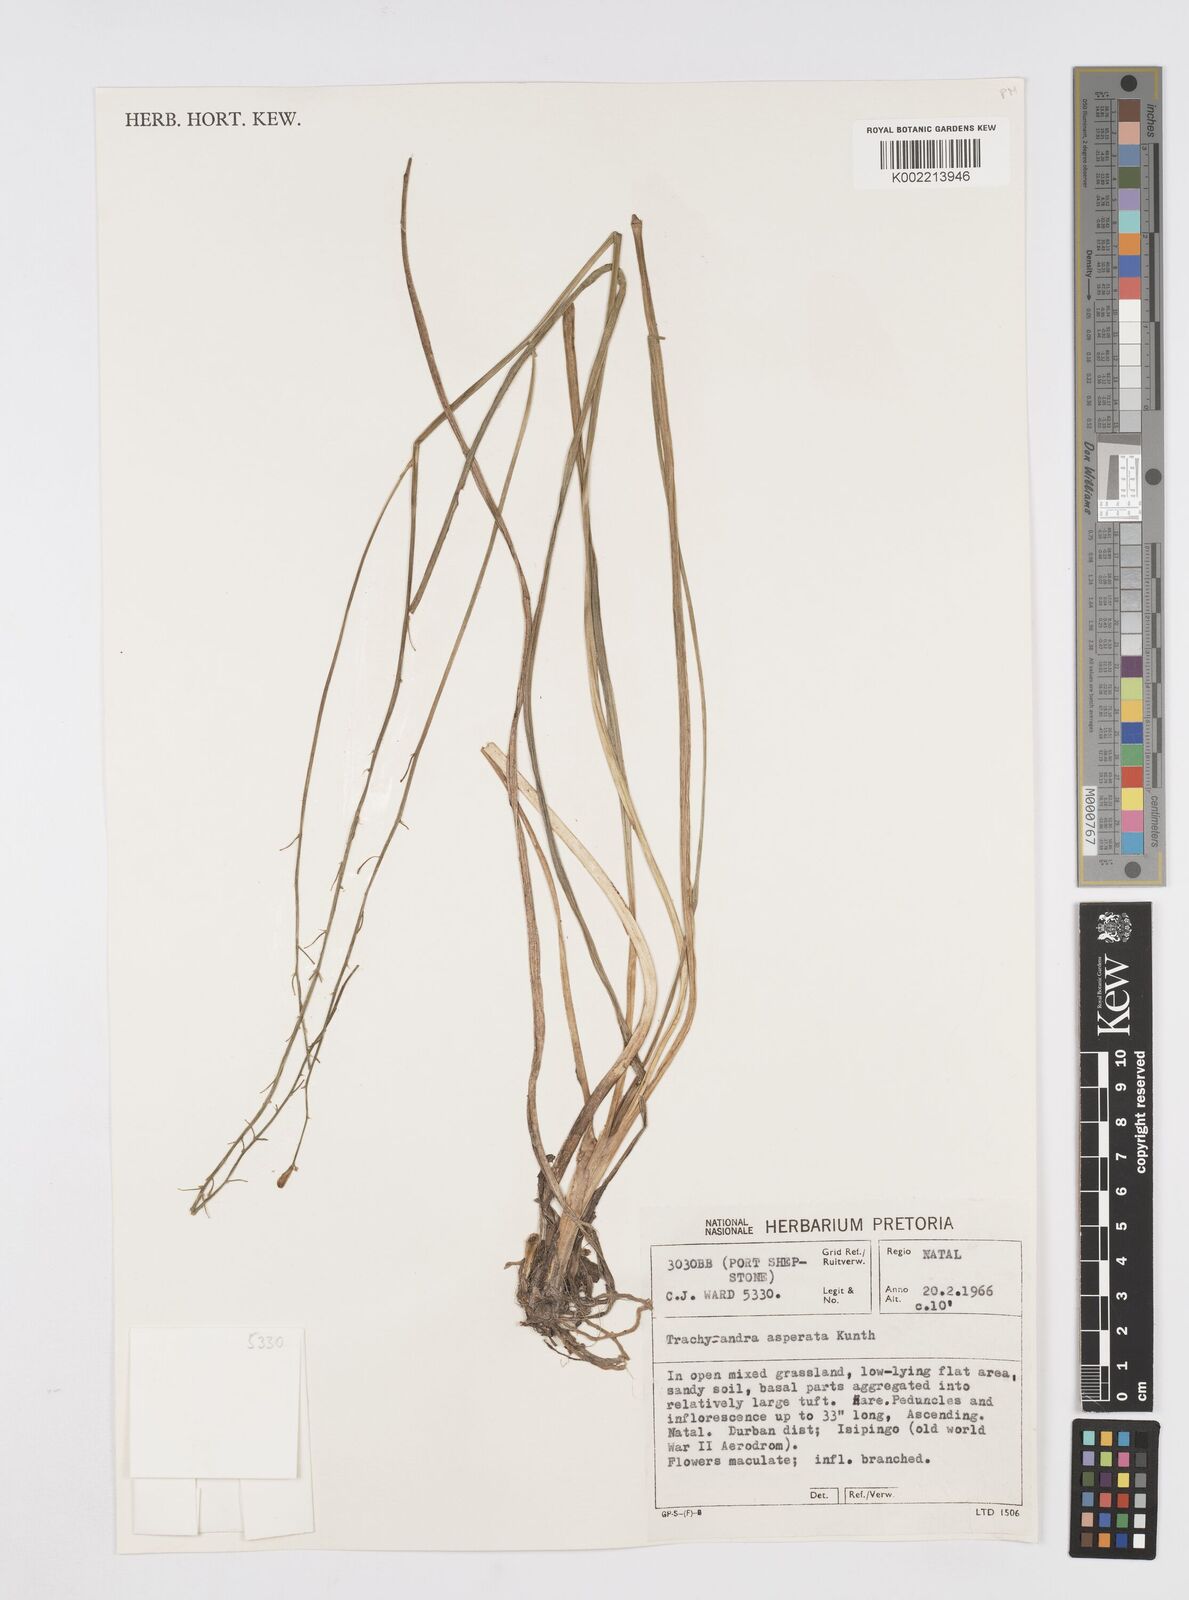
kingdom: Plantae
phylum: Tracheophyta
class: Liliopsida
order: Asparagales
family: Asphodelaceae
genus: Trachyandra
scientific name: Trachyandra asperata
